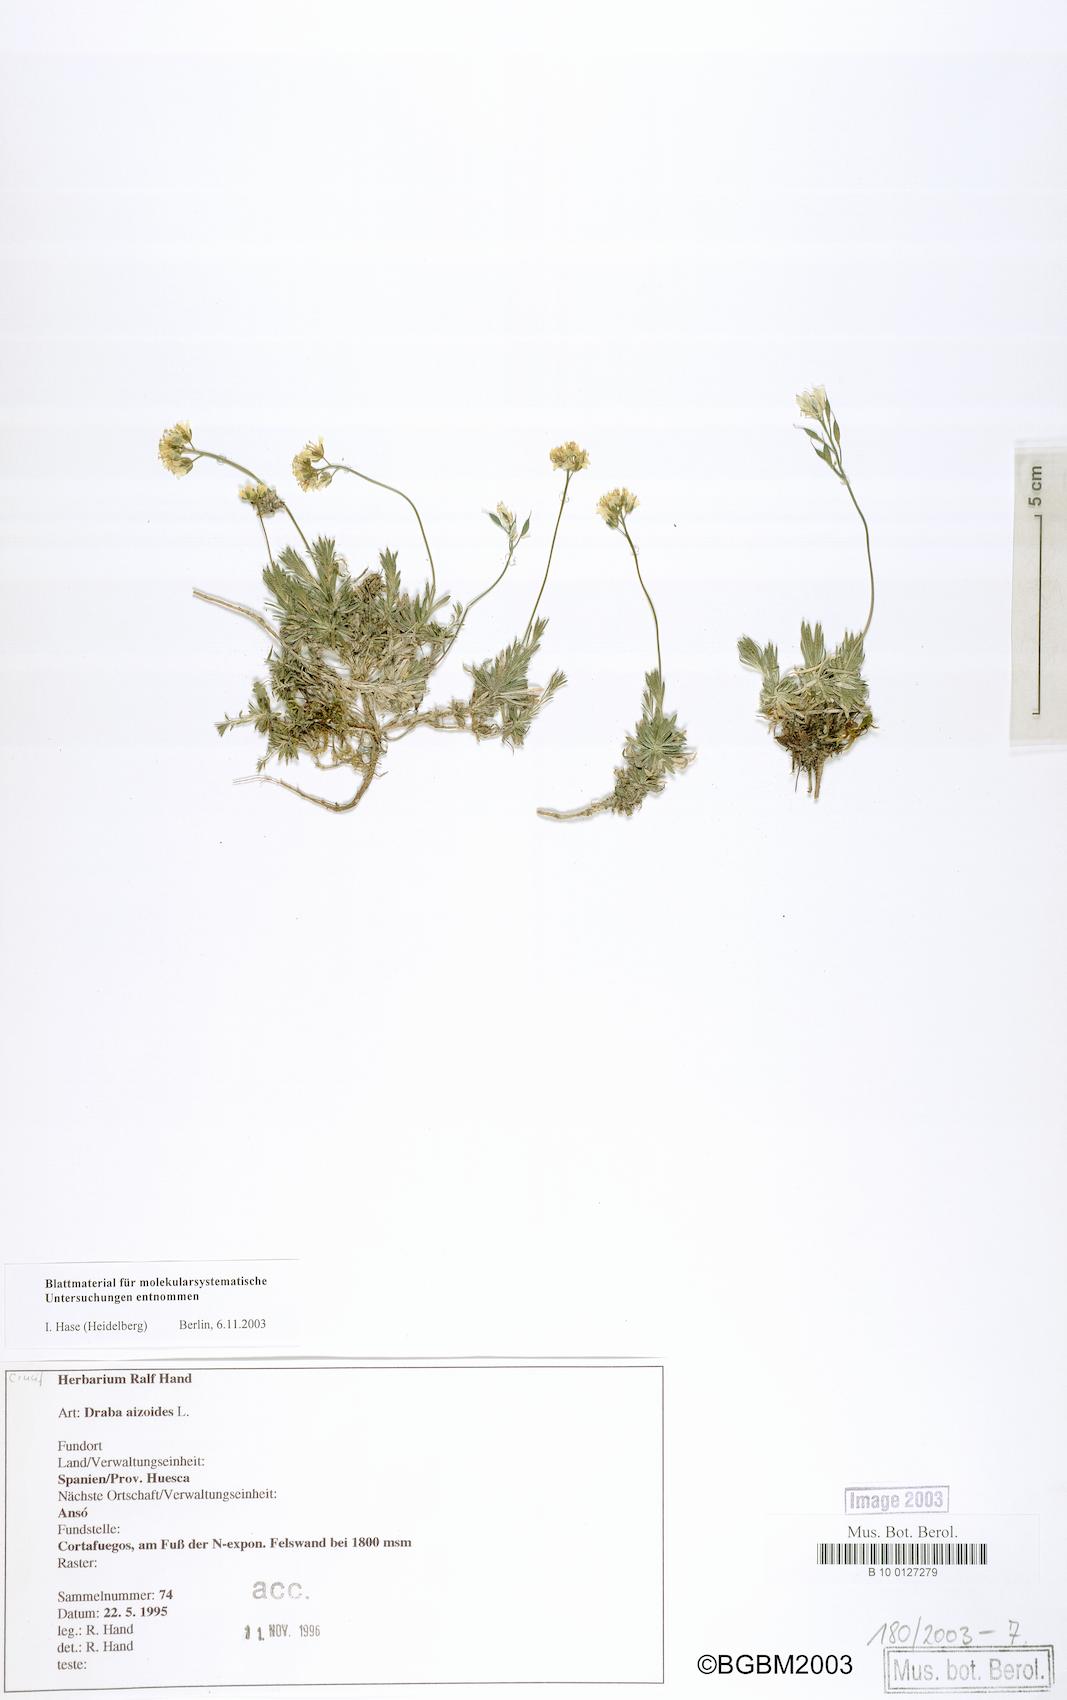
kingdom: Plantae
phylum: Tracheophyta
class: Magnoliopsida
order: Brassicales
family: Brassicaceae
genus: Draba
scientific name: Draba aizoides
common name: Yellow whitlowgrass
